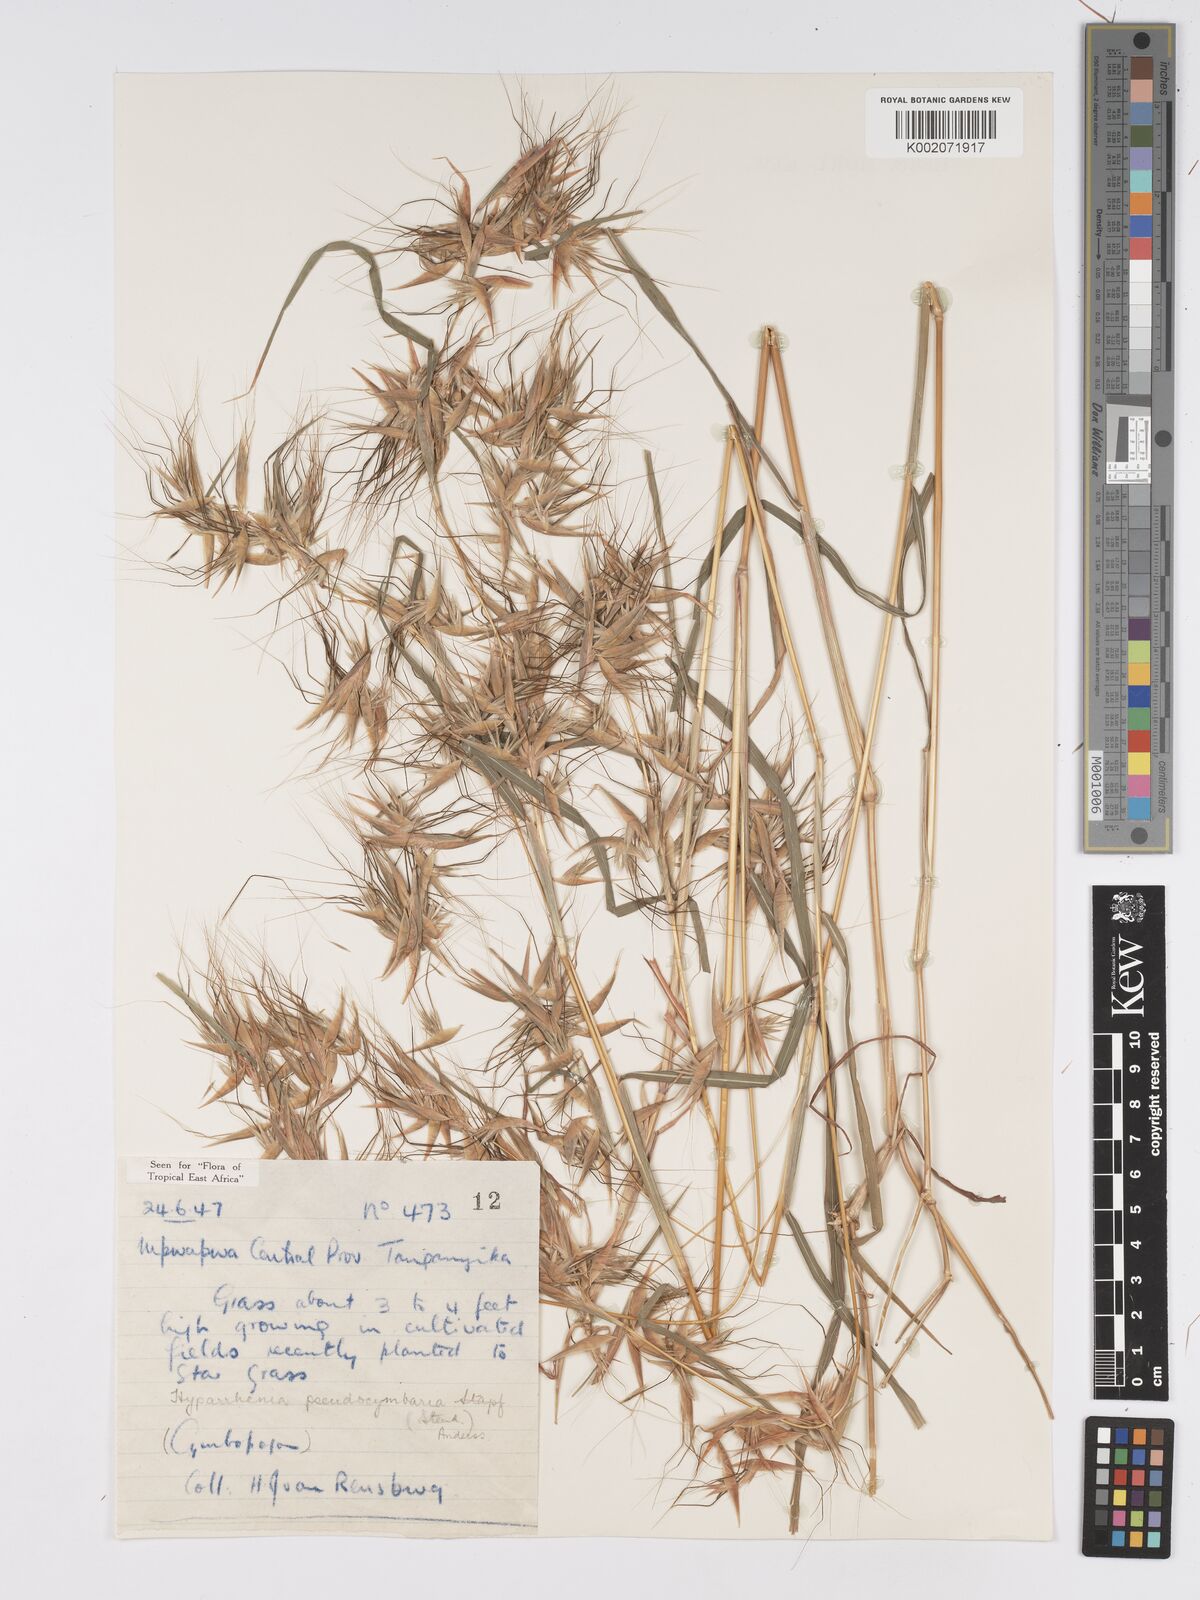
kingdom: Plantae
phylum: Tracheophyta
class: Liliopsida
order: Poales
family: Poaceae
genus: Hyparrhenia
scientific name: Hyparrhenia anthistirioides
